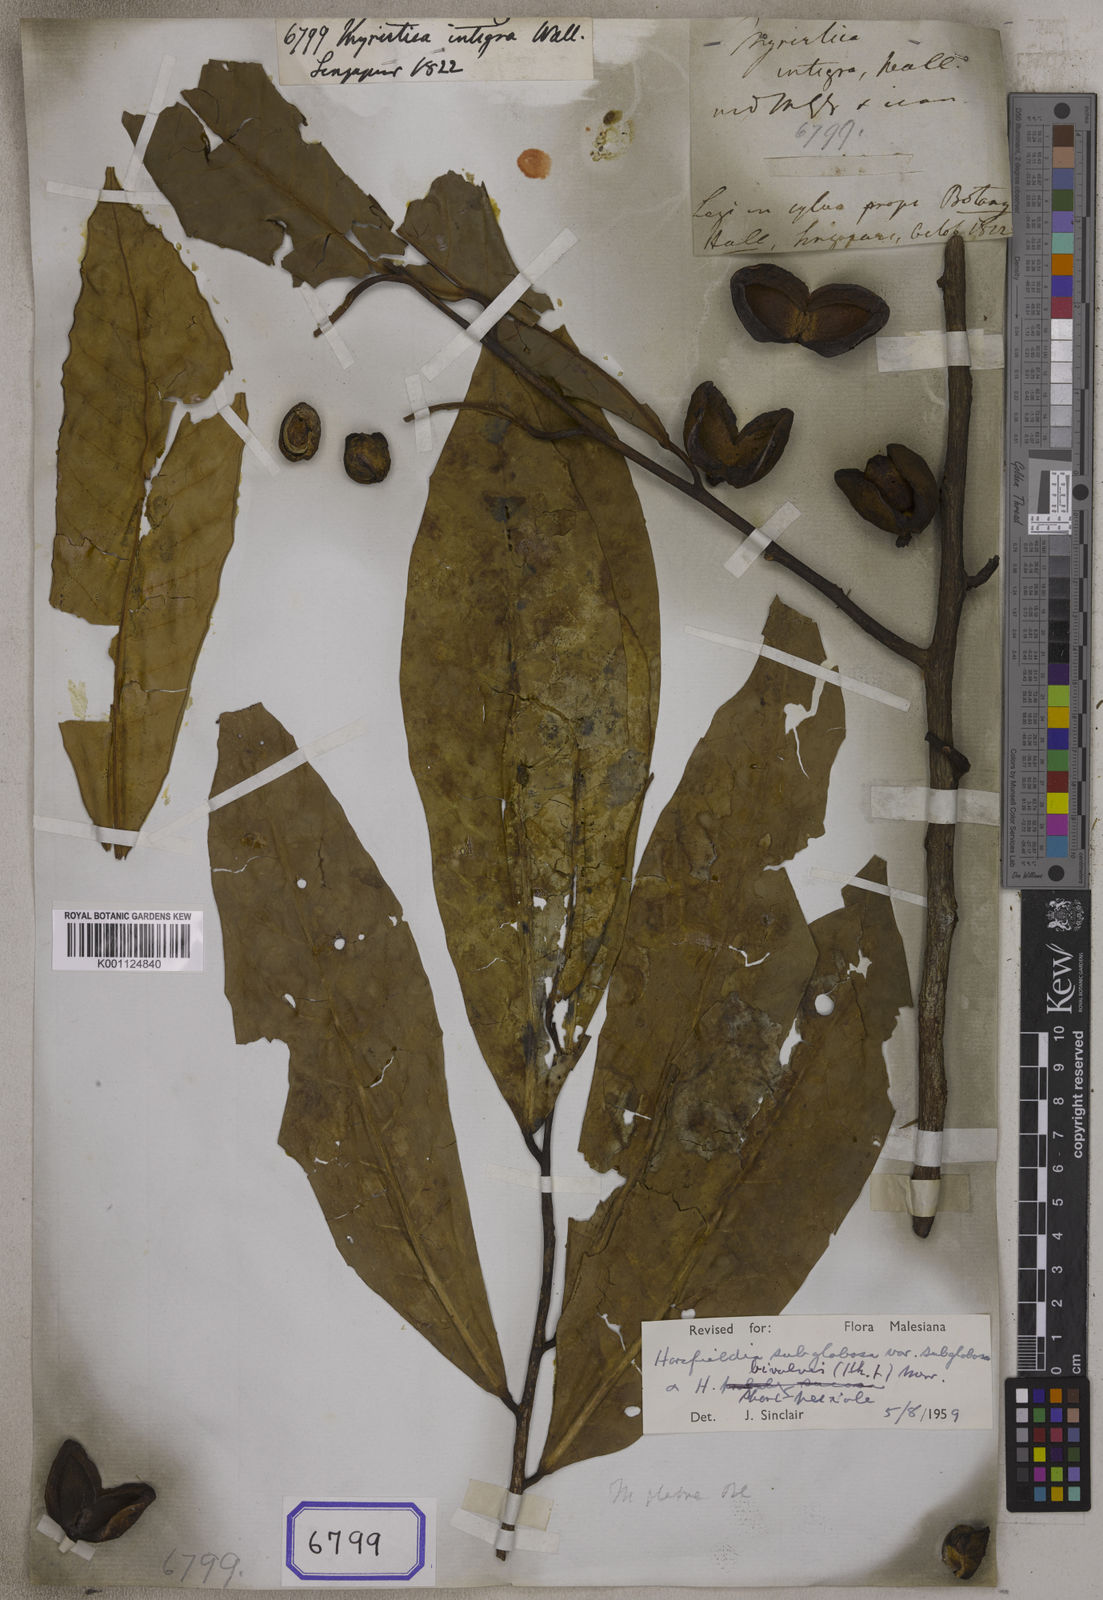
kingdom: Plantae
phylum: Tracheophyta
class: Magnoliopsida
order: Magnoliales
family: Myristicaceae
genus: Horsfieldia
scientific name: Horsfieldia polyspherula
